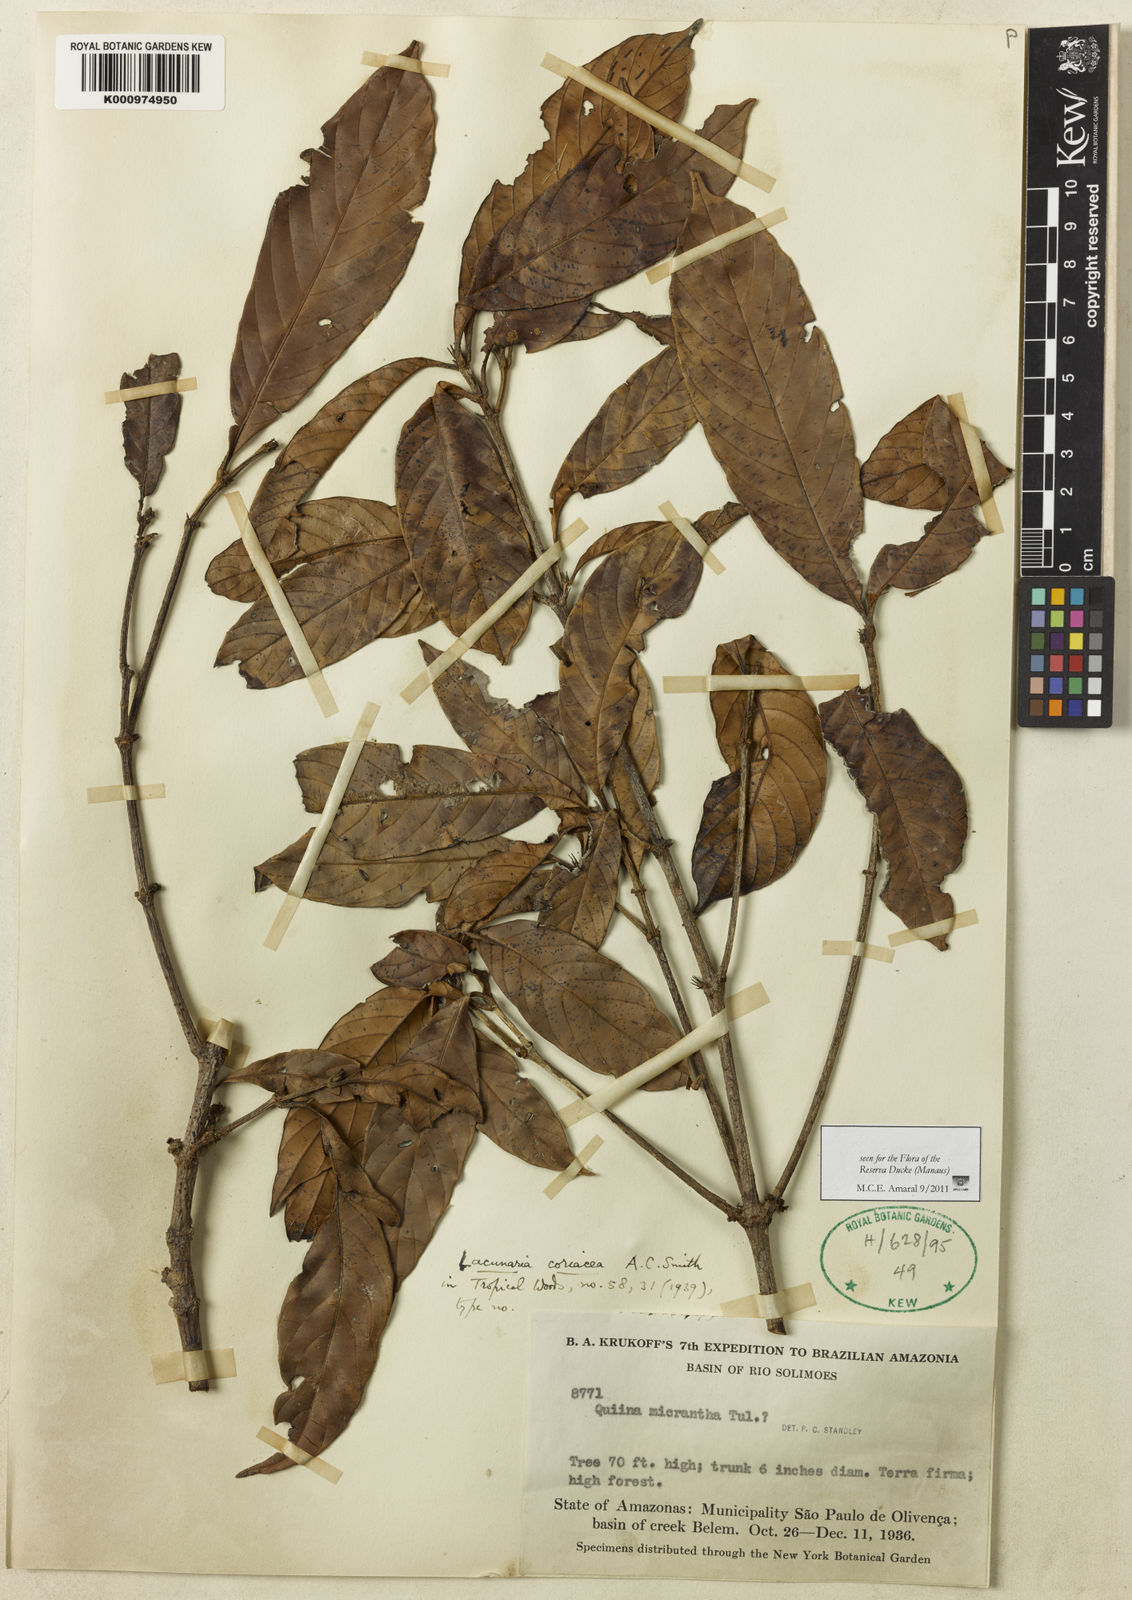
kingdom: Plantae
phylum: Tracheophyta
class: Magnoliopsida
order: Malpighiales
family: Quiinaceae
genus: Lacunaria
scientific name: Lacunaria macrostachya
